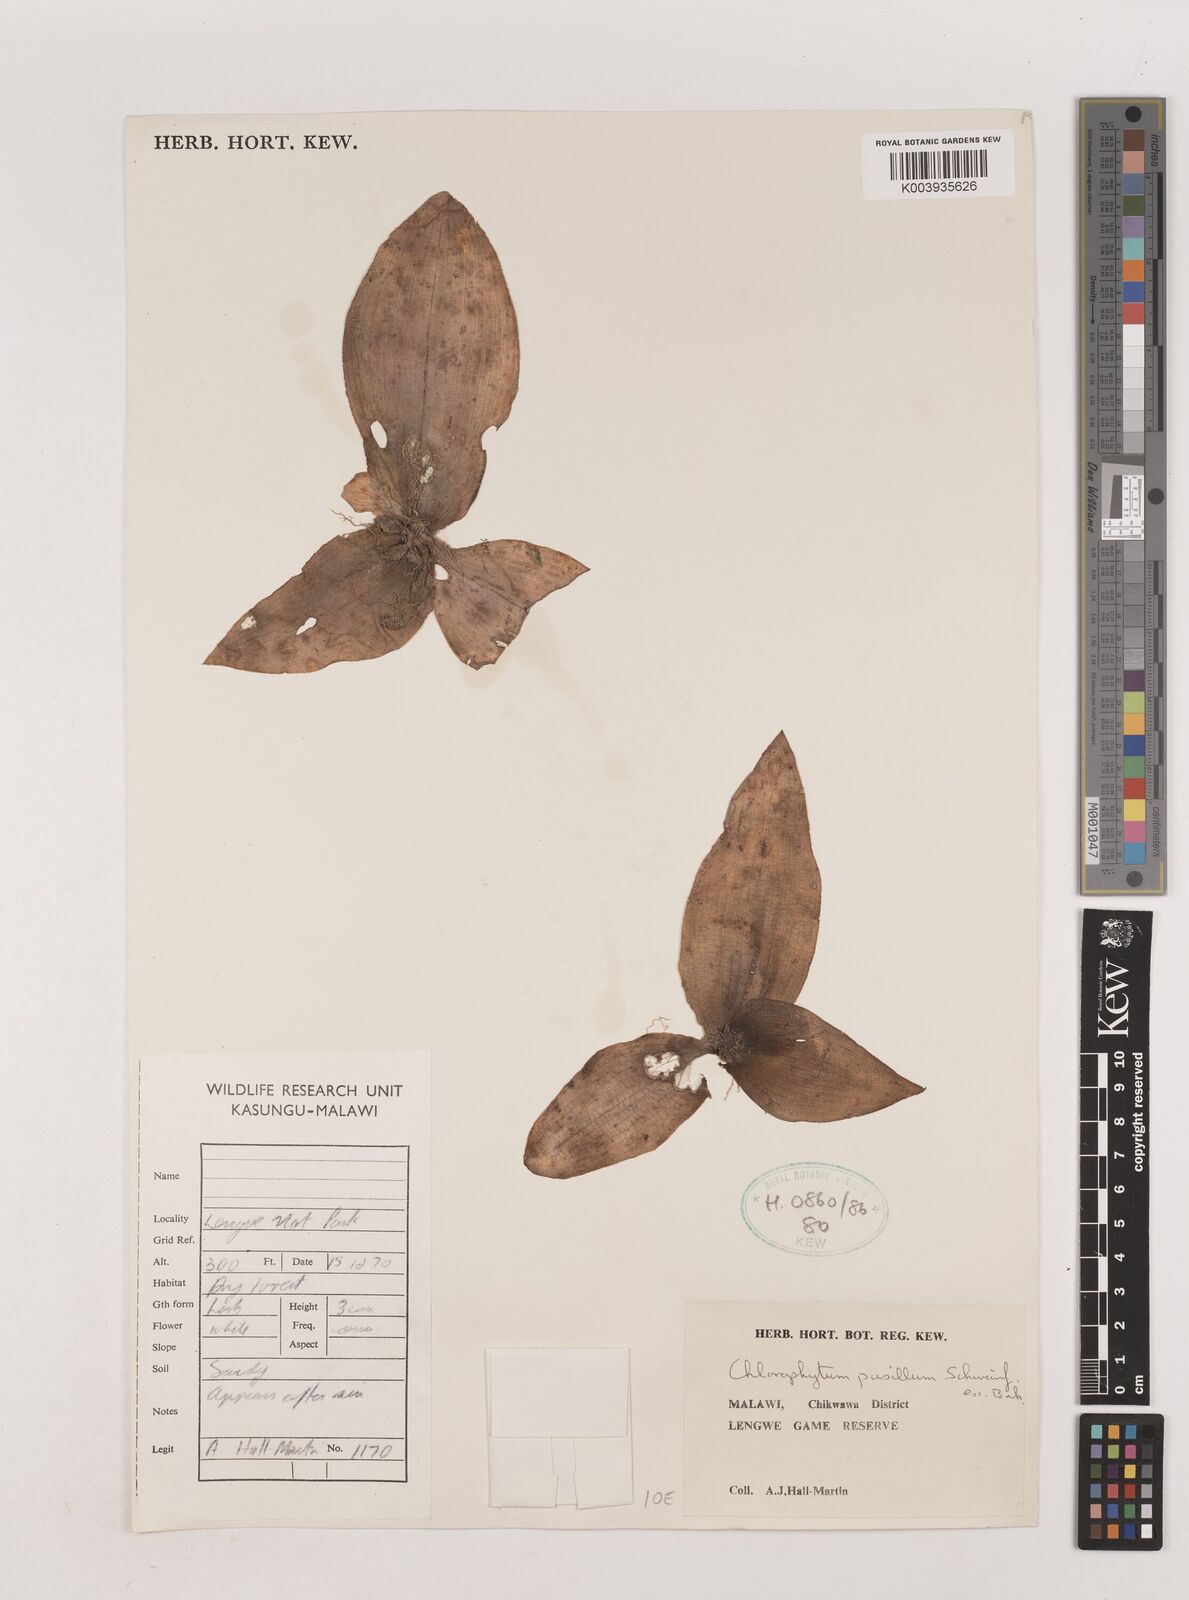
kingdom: Plantae
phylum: Tracheophyta
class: Liliopsida
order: Asparagales
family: Asparagaceae
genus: Chlorophytum
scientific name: Chlorophytum pusillum
